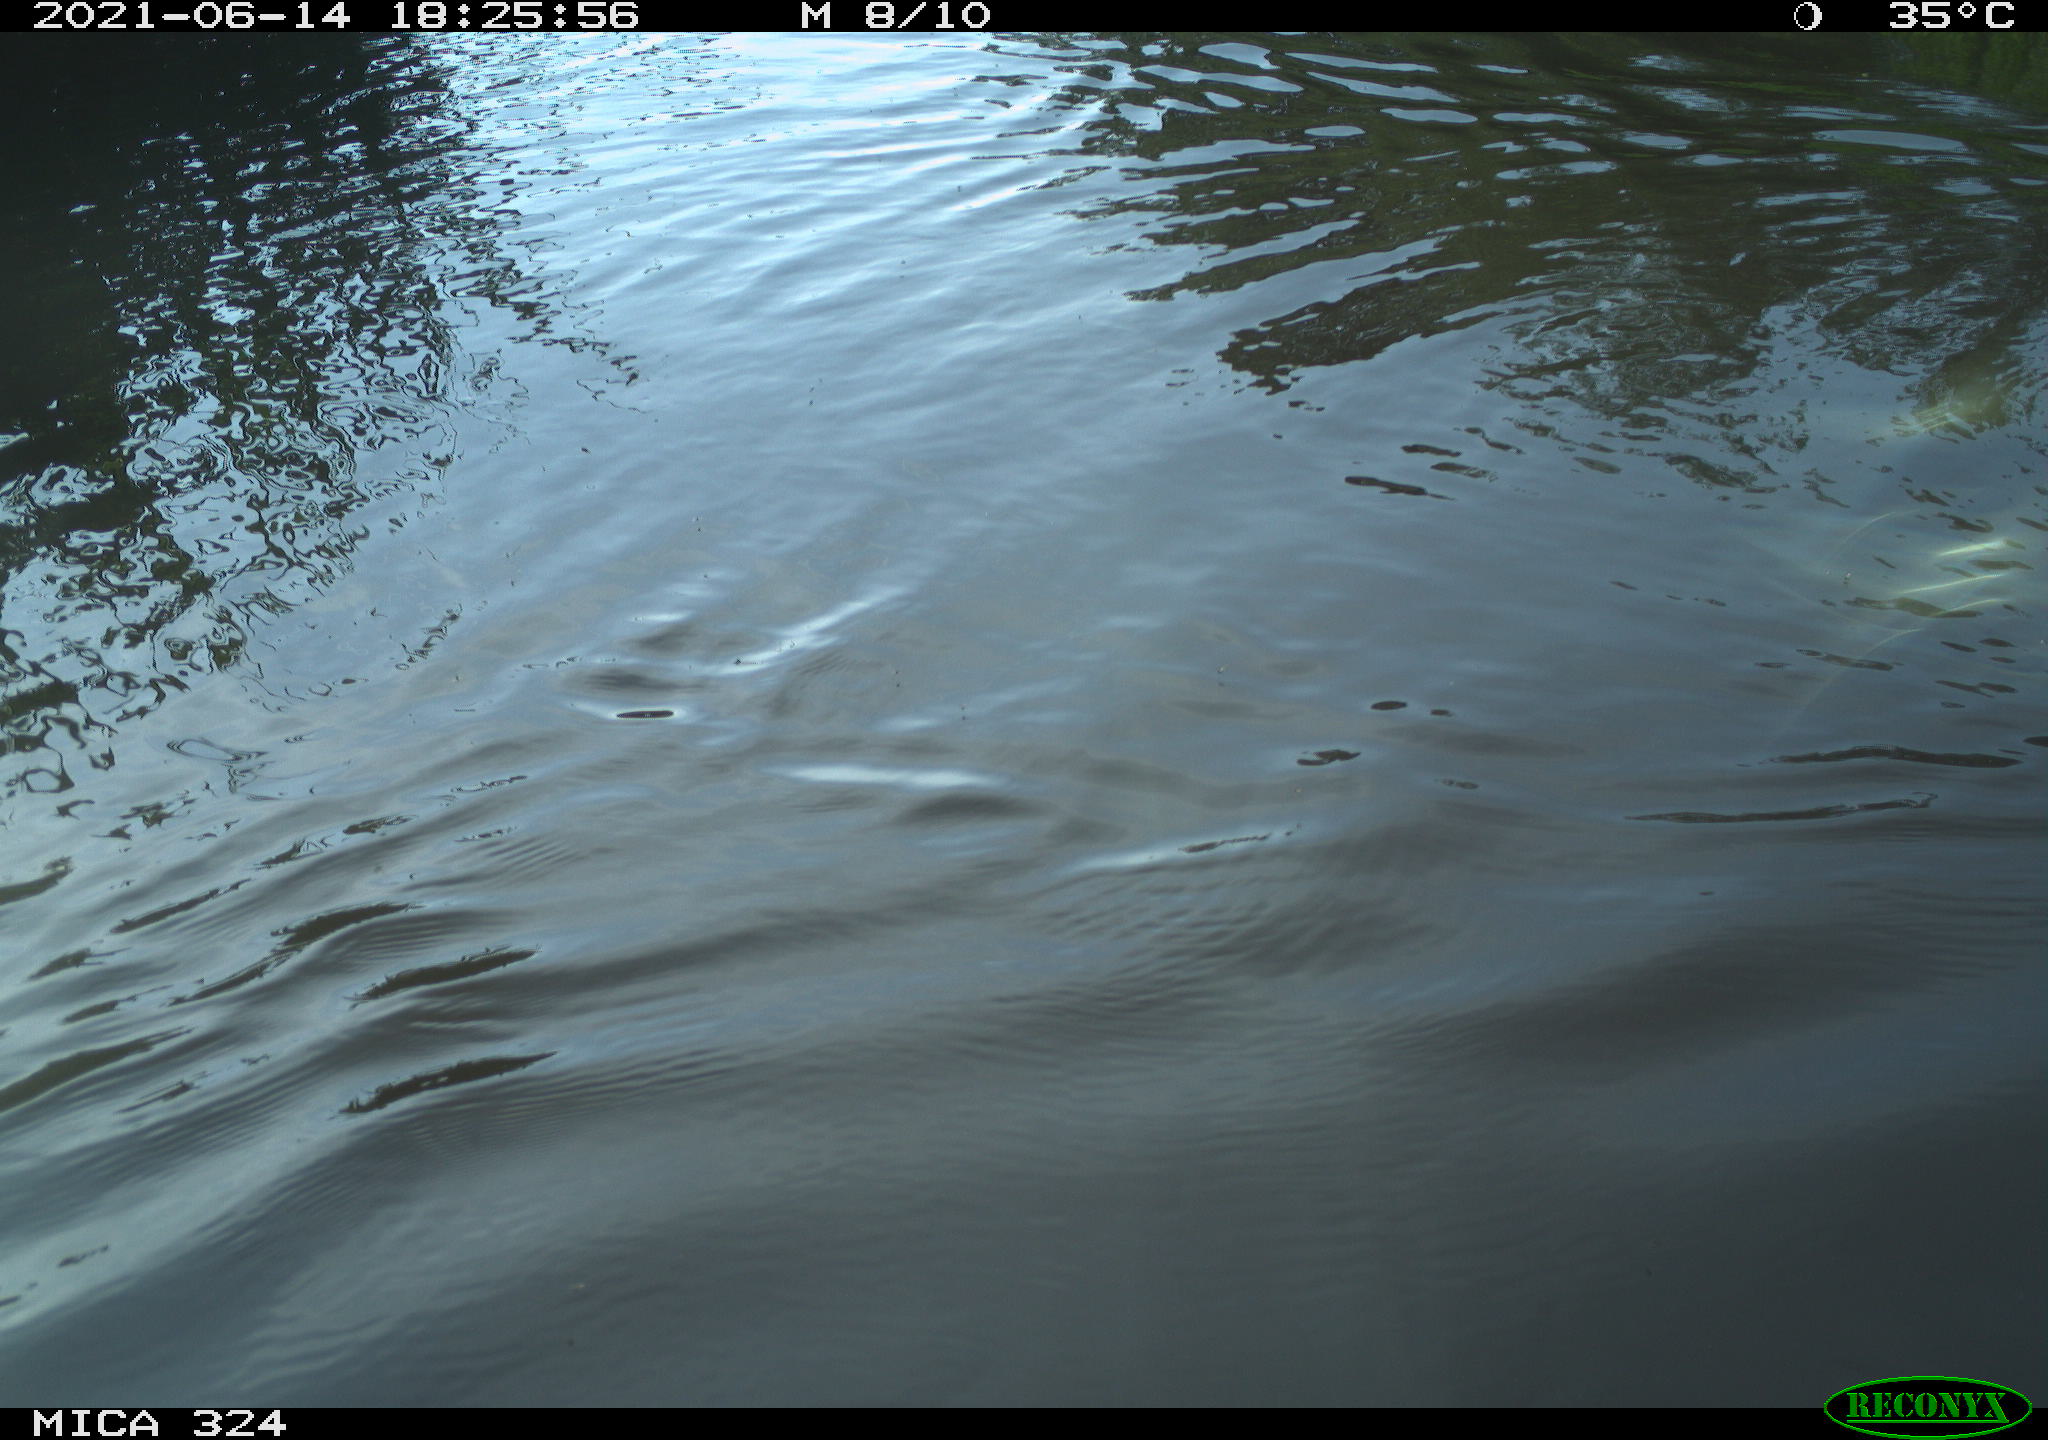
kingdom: Animalia
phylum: Chordata
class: Mammalia
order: Rodentia
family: Cricetidae
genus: Ondatra
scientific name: Ondatra zibethicus
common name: Muskrat
